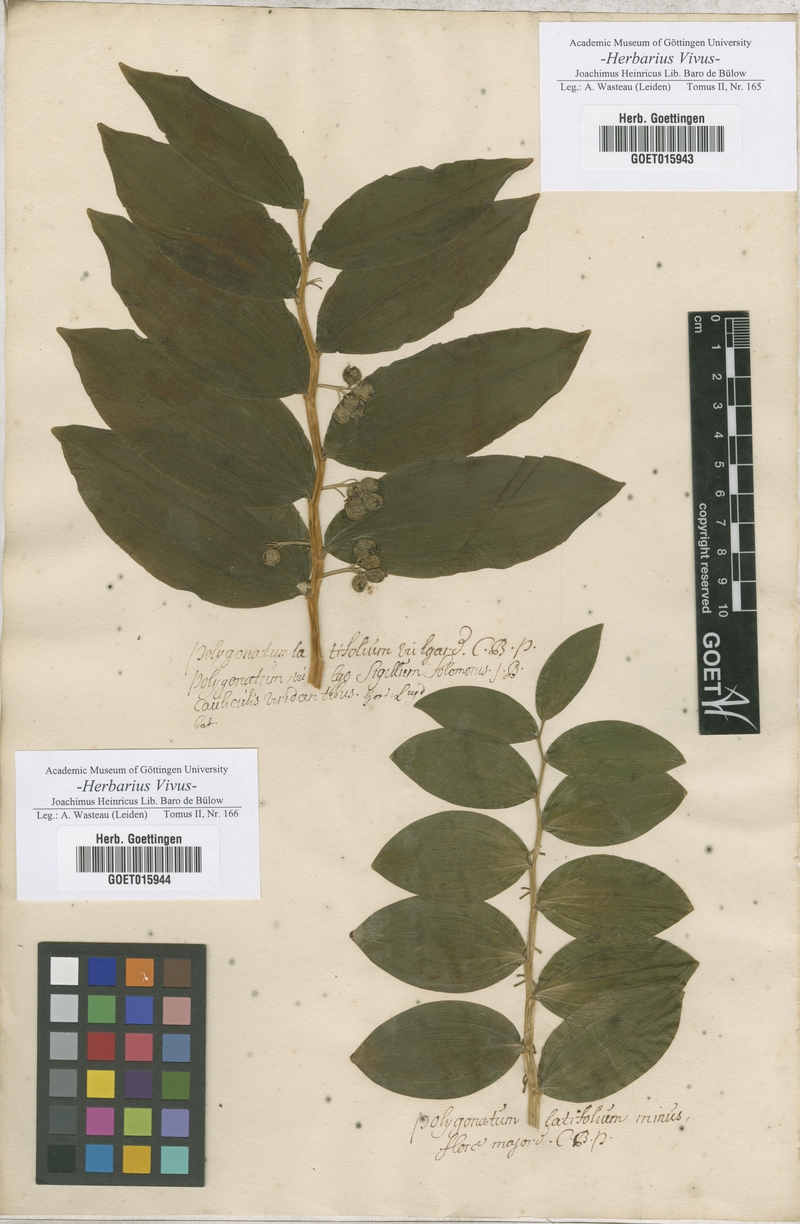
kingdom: Plantae
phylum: Tracheophyta
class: Liliopsida
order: Asparagales
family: Asparagaceae
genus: Polygonatum
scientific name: Polygonatum
